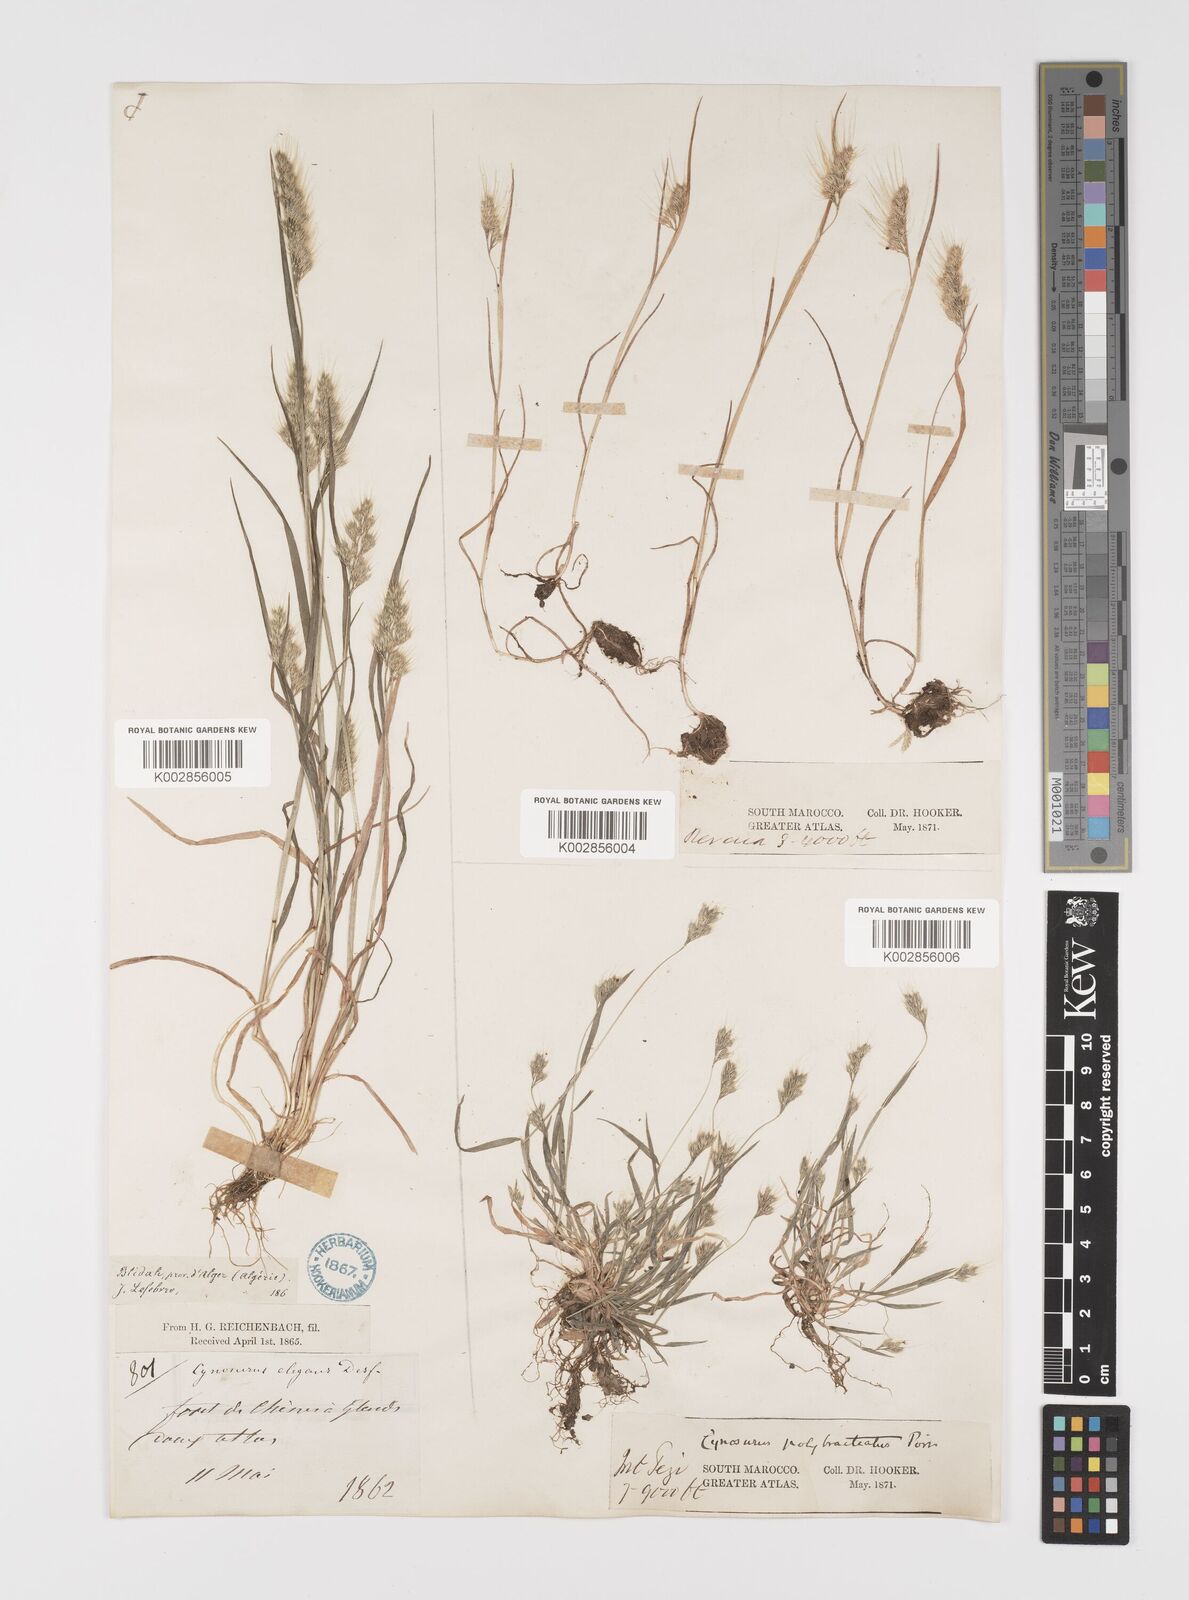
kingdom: Plantae
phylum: Tracheophyta
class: Liliopsida
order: Poales
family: Poaceae
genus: Cynosurus
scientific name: Cynosurus elegans
